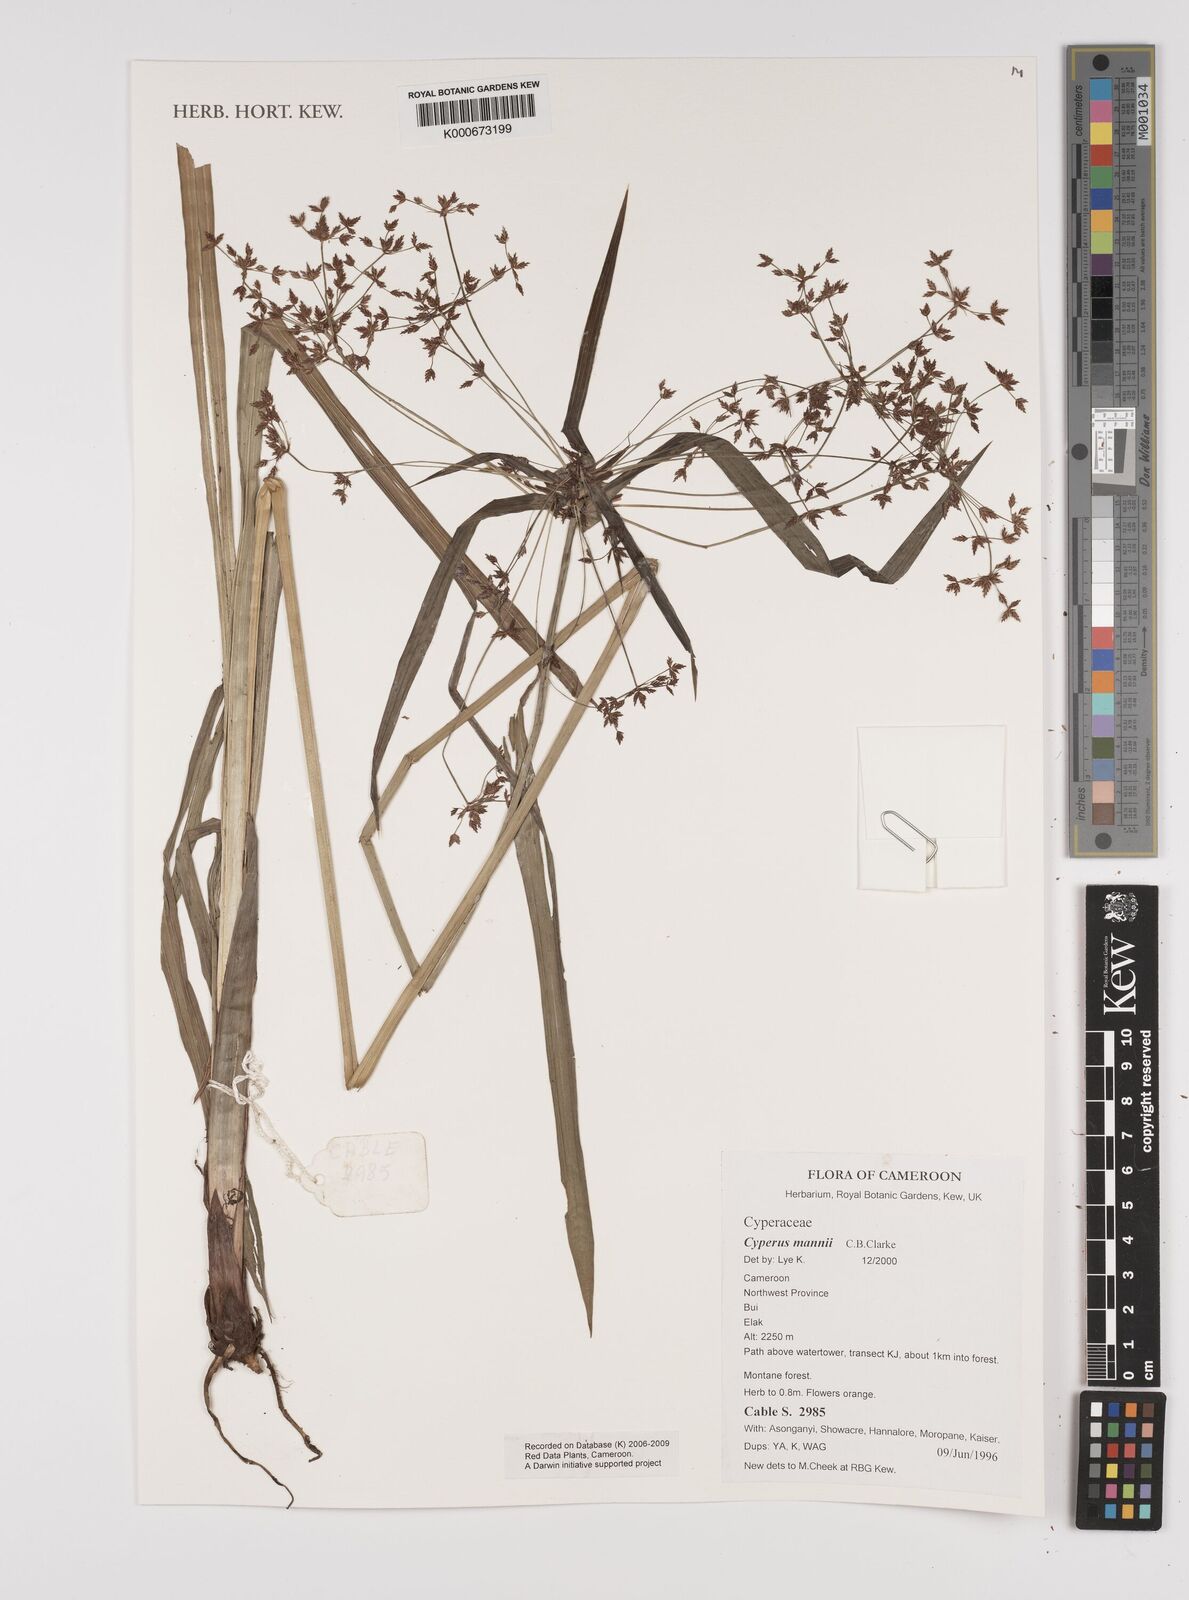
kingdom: Plantae
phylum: Tracheophyta
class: Liliopsida
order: Poales
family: Cyperaceae
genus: Cyperus
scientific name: Cyperus baronii
